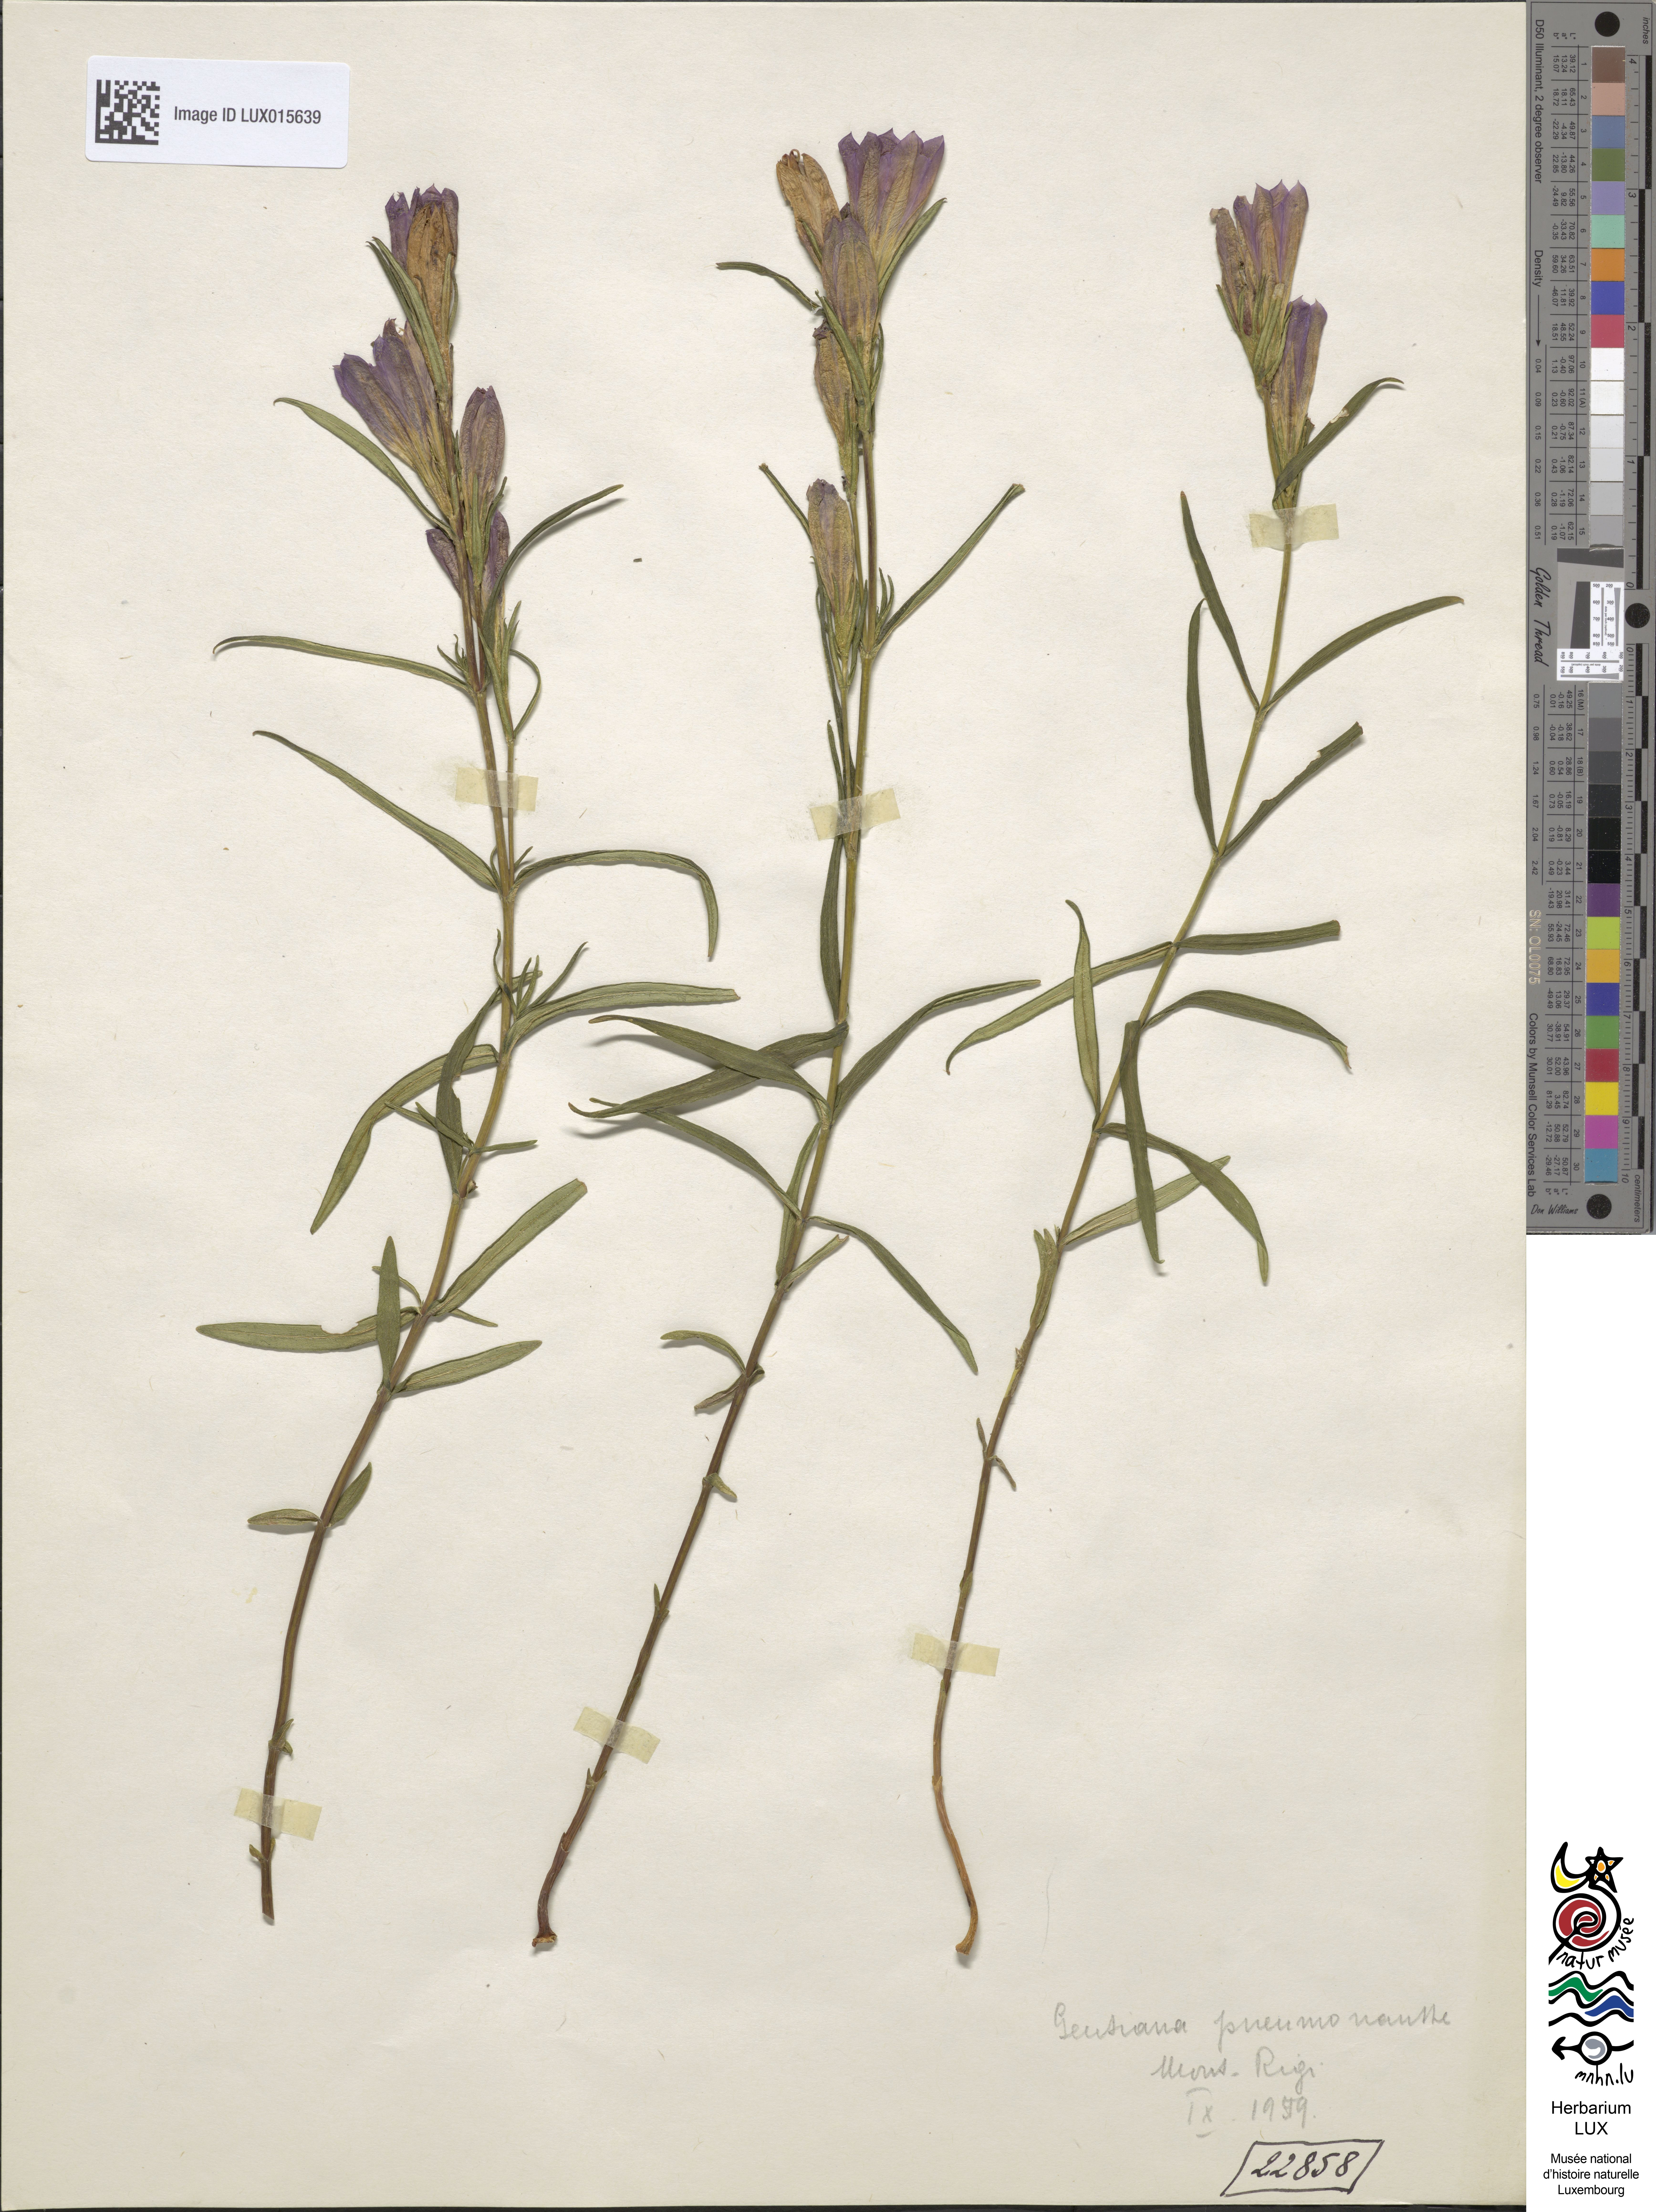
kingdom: Plantae
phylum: Tracheophyta
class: Magnoliopsida
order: Gentianales
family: Gentianaceae
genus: Gentiana
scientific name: Gentiana pneumonanthe
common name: Marsh gentian
